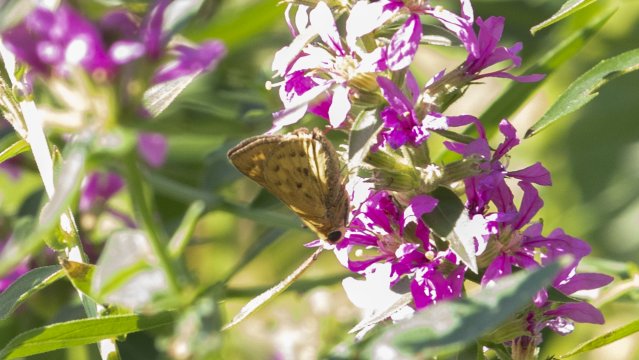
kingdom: Animalia
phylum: Arthropoda
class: Insecta
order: Lepidoptera
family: Hesperiidae
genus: Hylephila
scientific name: Hylephila phyleus
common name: Fiery Skipper
